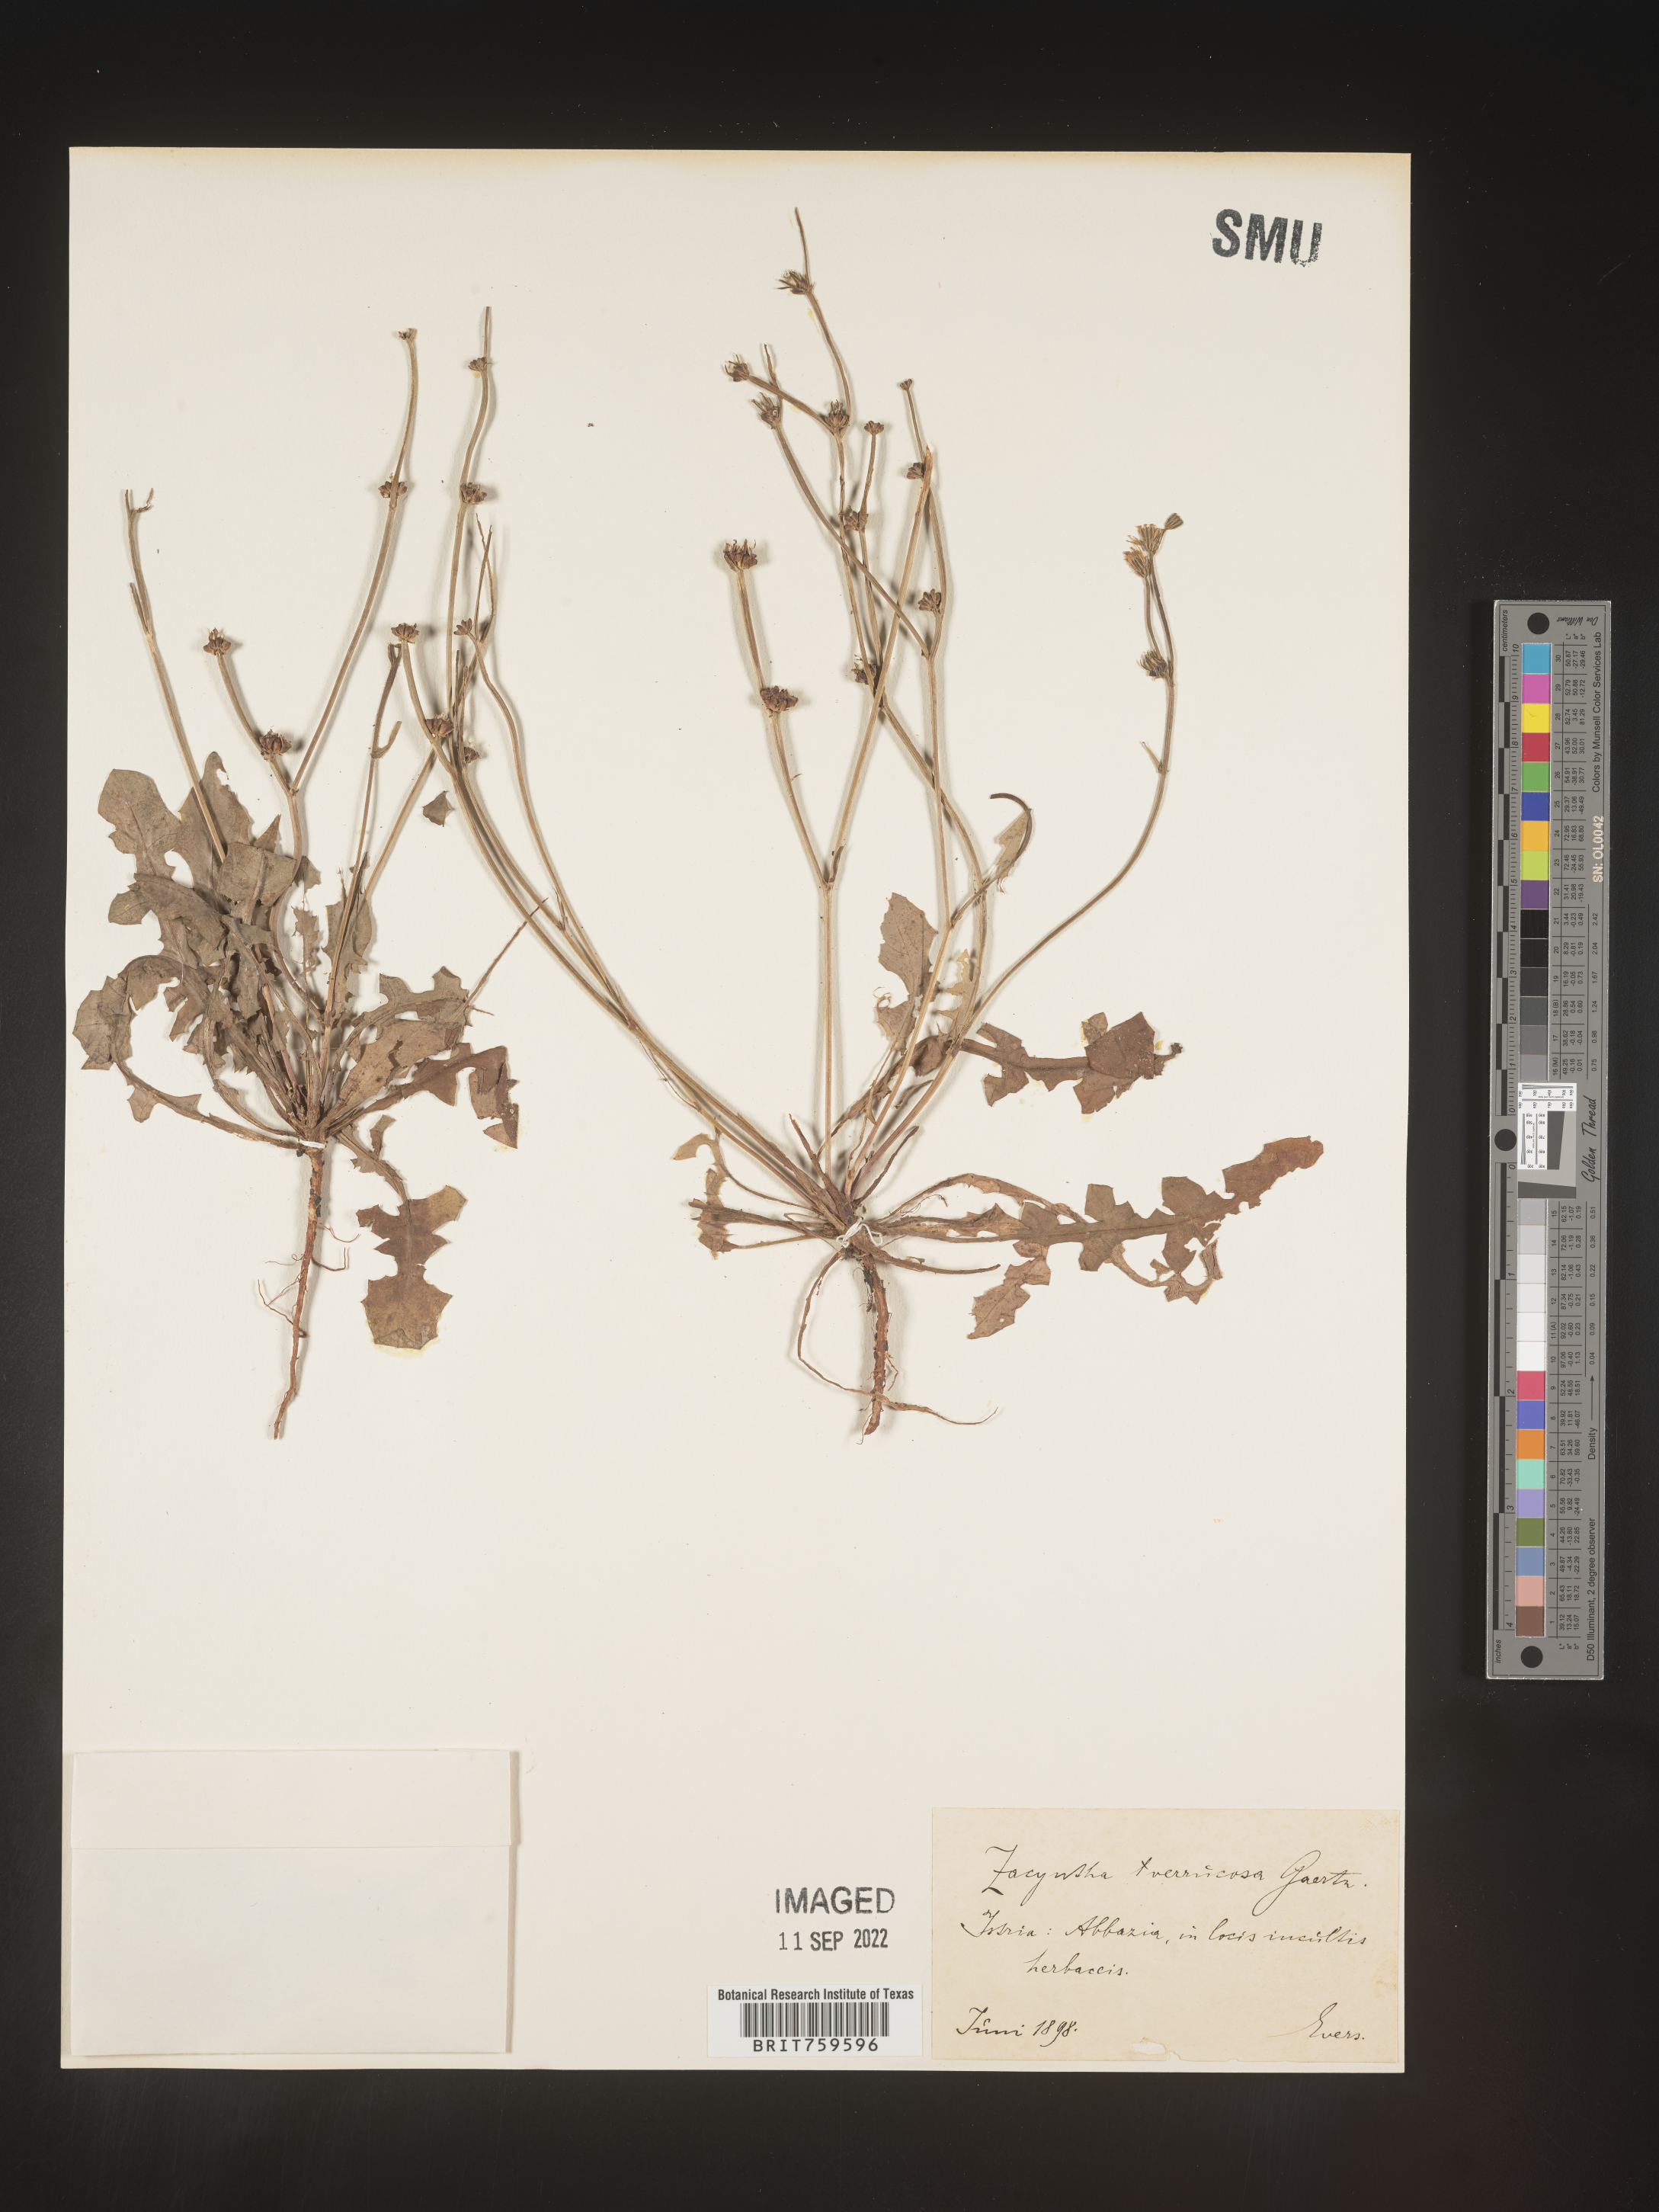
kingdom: Plantae
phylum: Tracheophyta
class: Magnoliopsida
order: Asterales
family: Asteraceae
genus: Zacyntha
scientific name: Zacyntha
